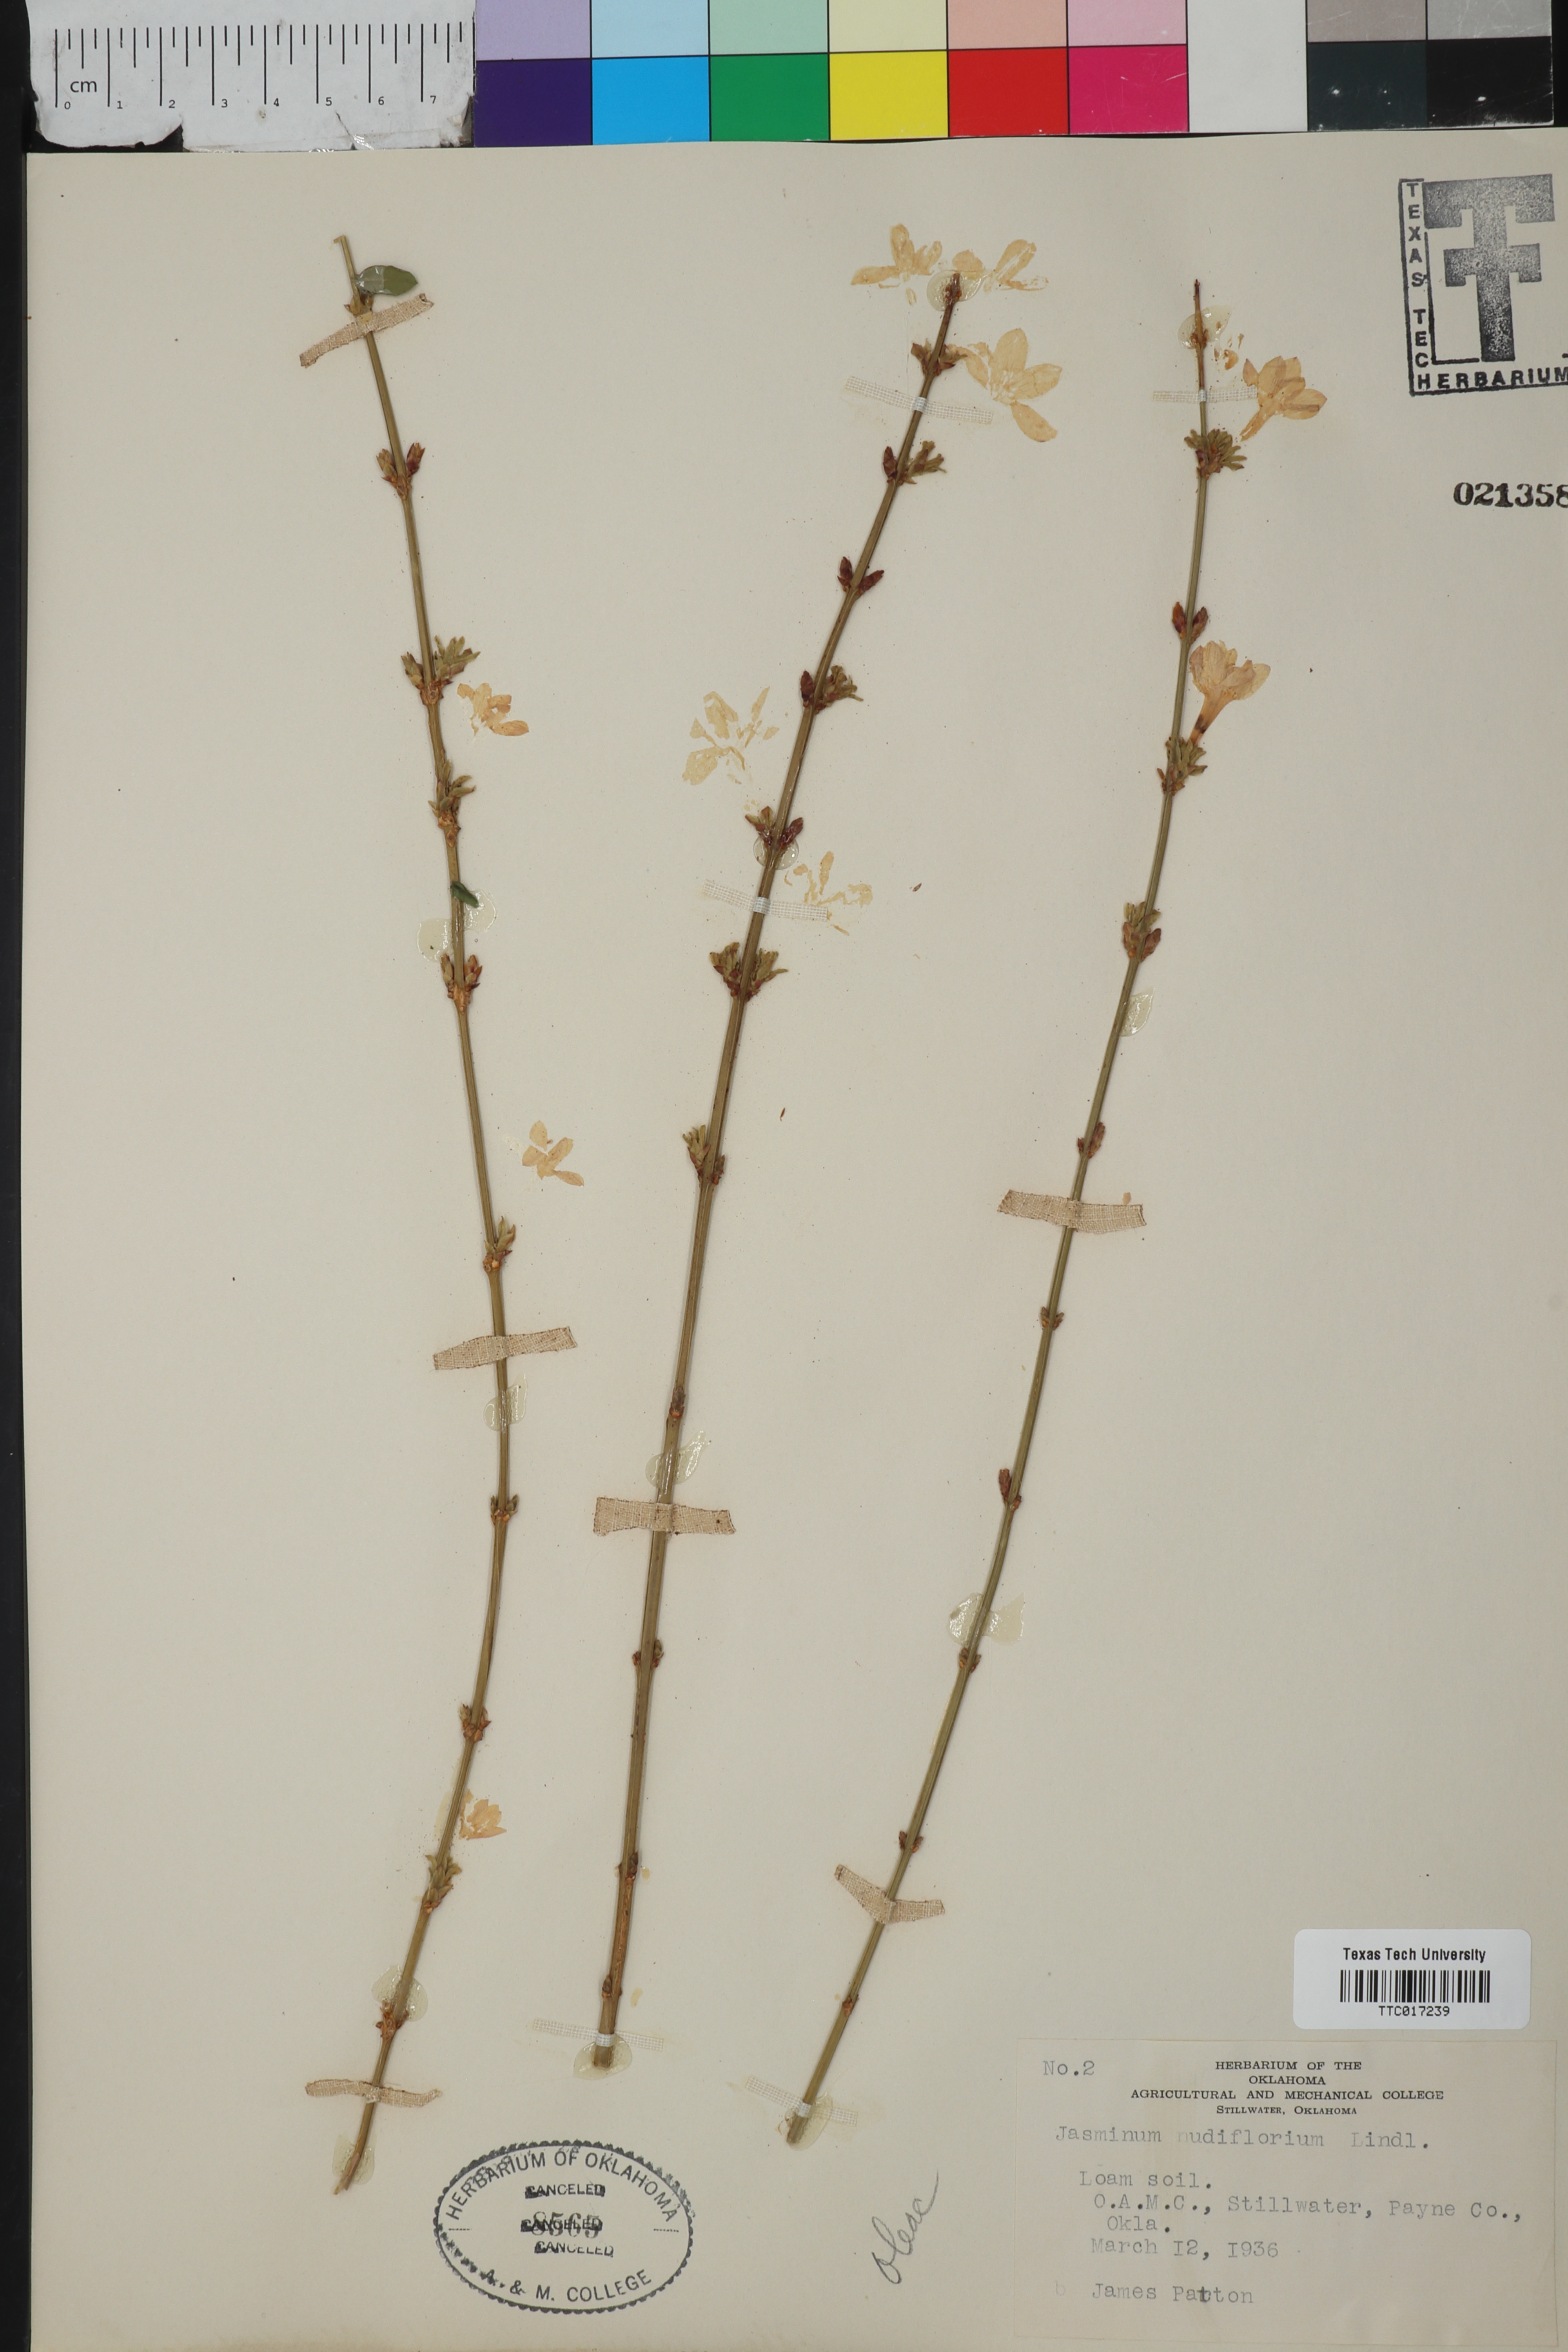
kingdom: Plantae
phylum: Tracheophyta
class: Magnoliopsida
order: Lamiales
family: Oleaceae
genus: Jasminum
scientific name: Jasminum nudiflorum
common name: Winter jasmine
